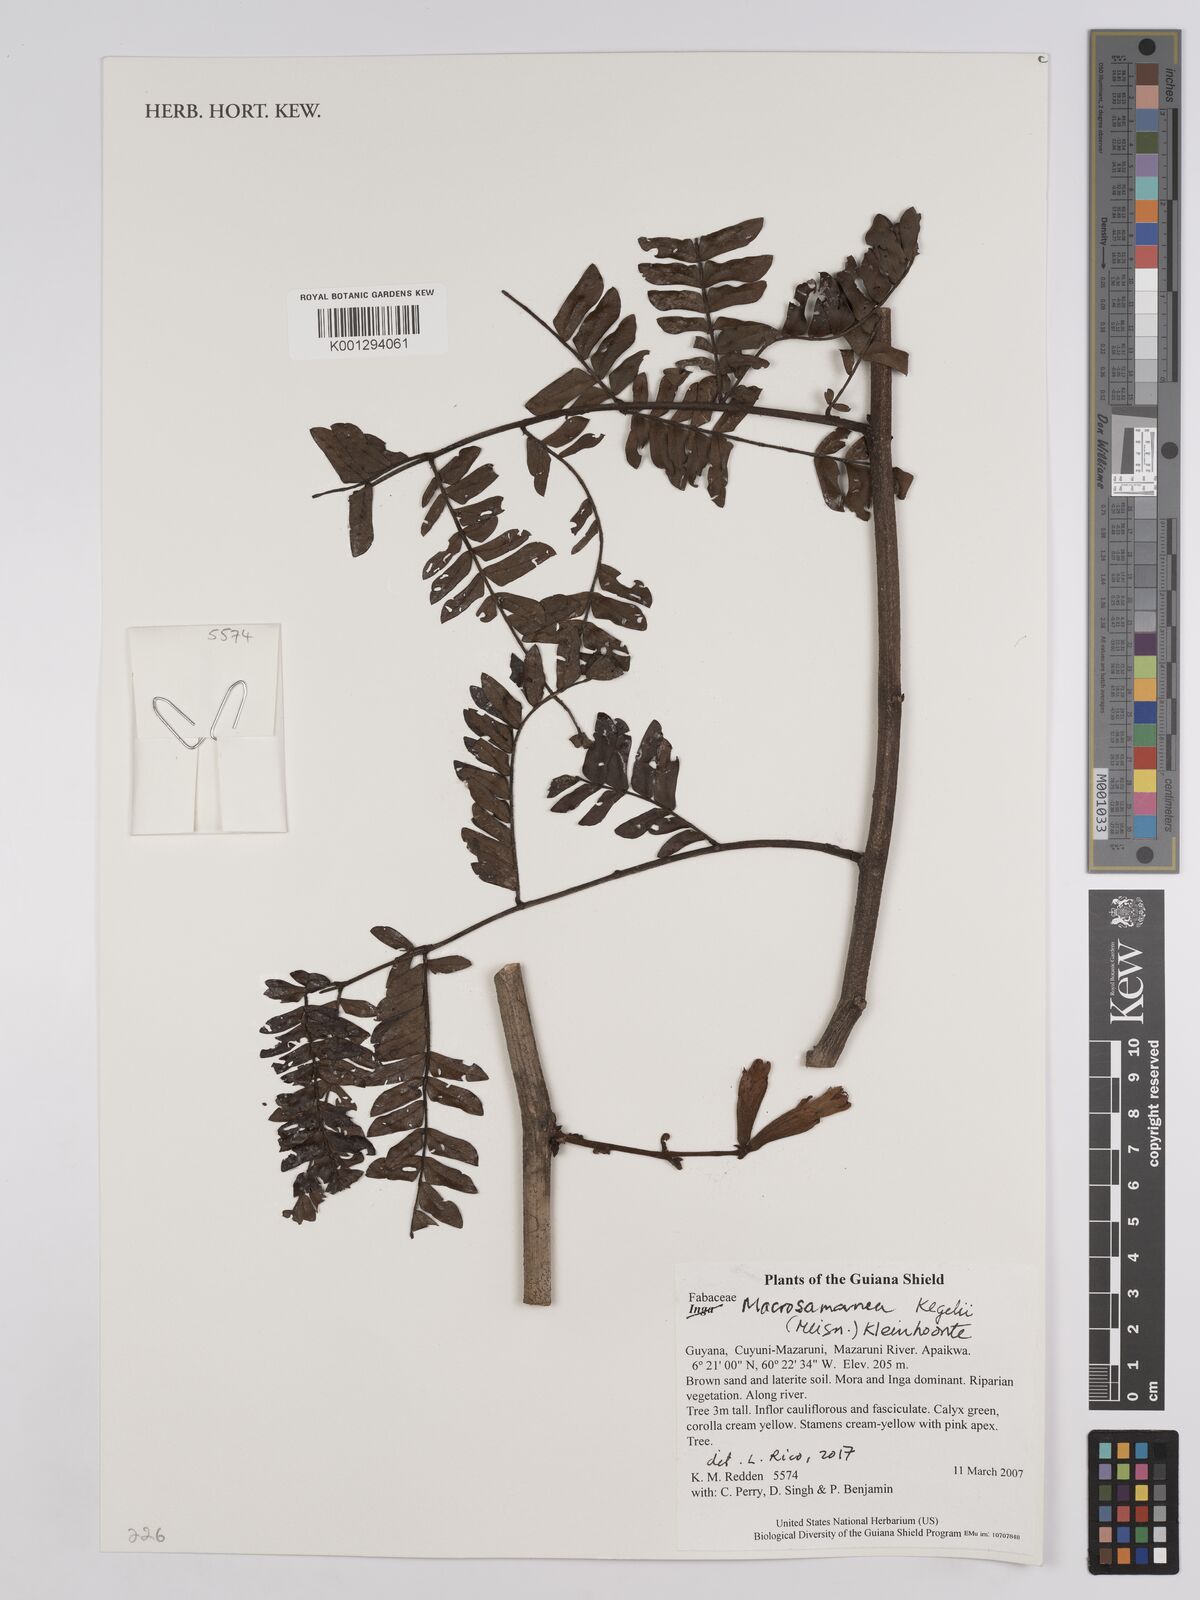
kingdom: Plantae
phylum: Tracheophyta
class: Magnoliopsida
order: Fabales
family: Fabaceae
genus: Macrosamanea
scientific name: Macrosamanea kegelii
